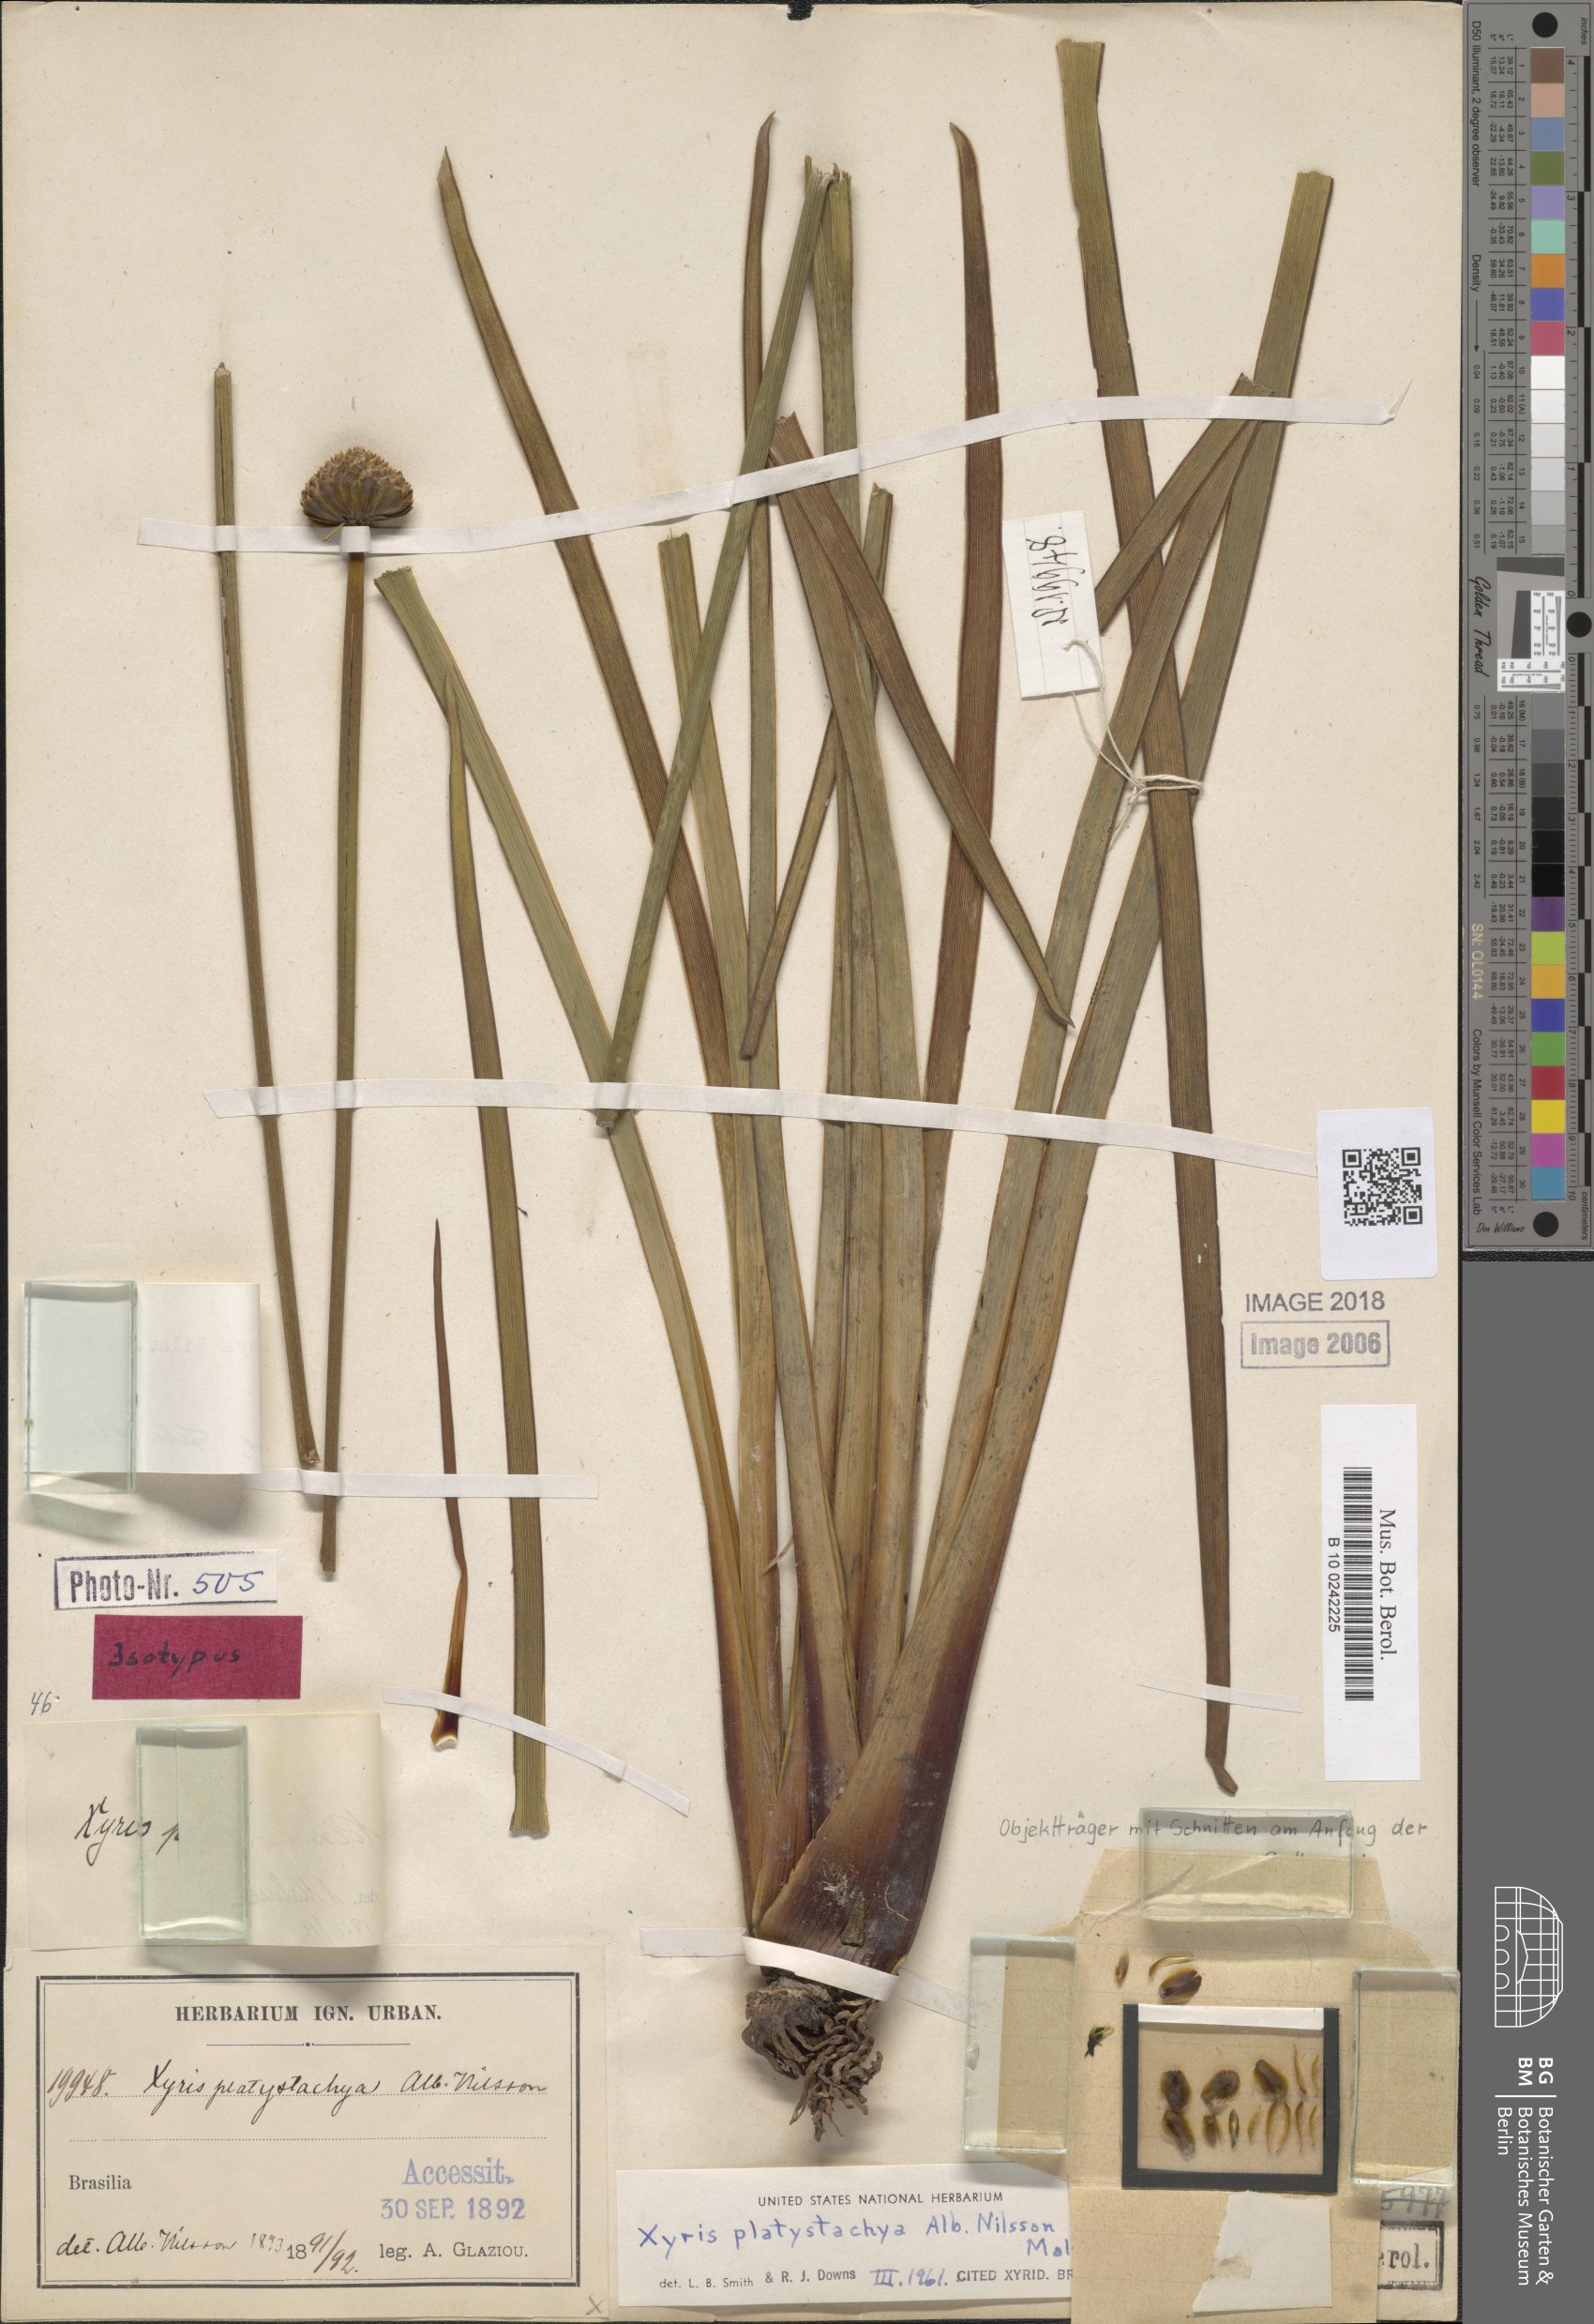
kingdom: Plantae
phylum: Tracheophyta
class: Liliopsida
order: Poales
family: Xyridaceae
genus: Xyris
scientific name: Xyris platystachya
